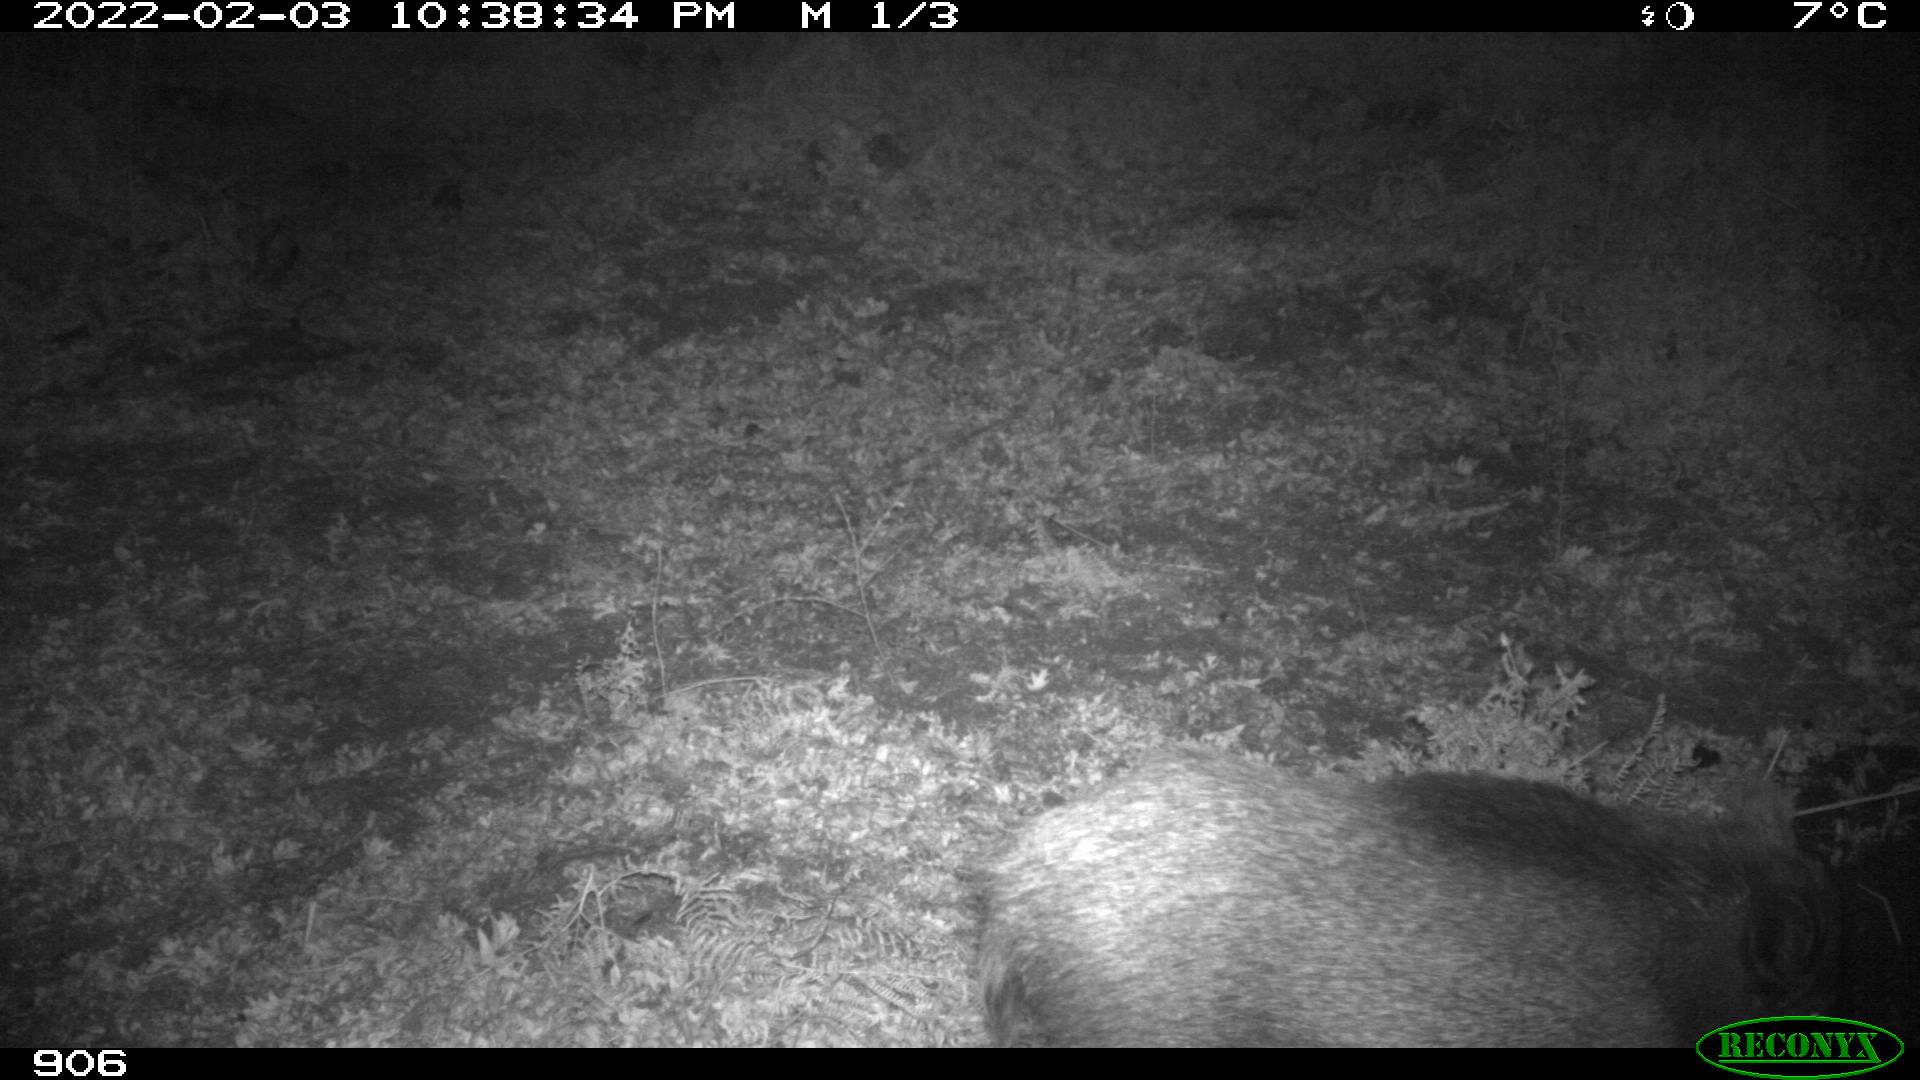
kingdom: Animalia
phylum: Chordata
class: Mammalia
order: Artiodactyla
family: Suidae
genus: Sus
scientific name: Sus scrofa
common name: Wild boar
